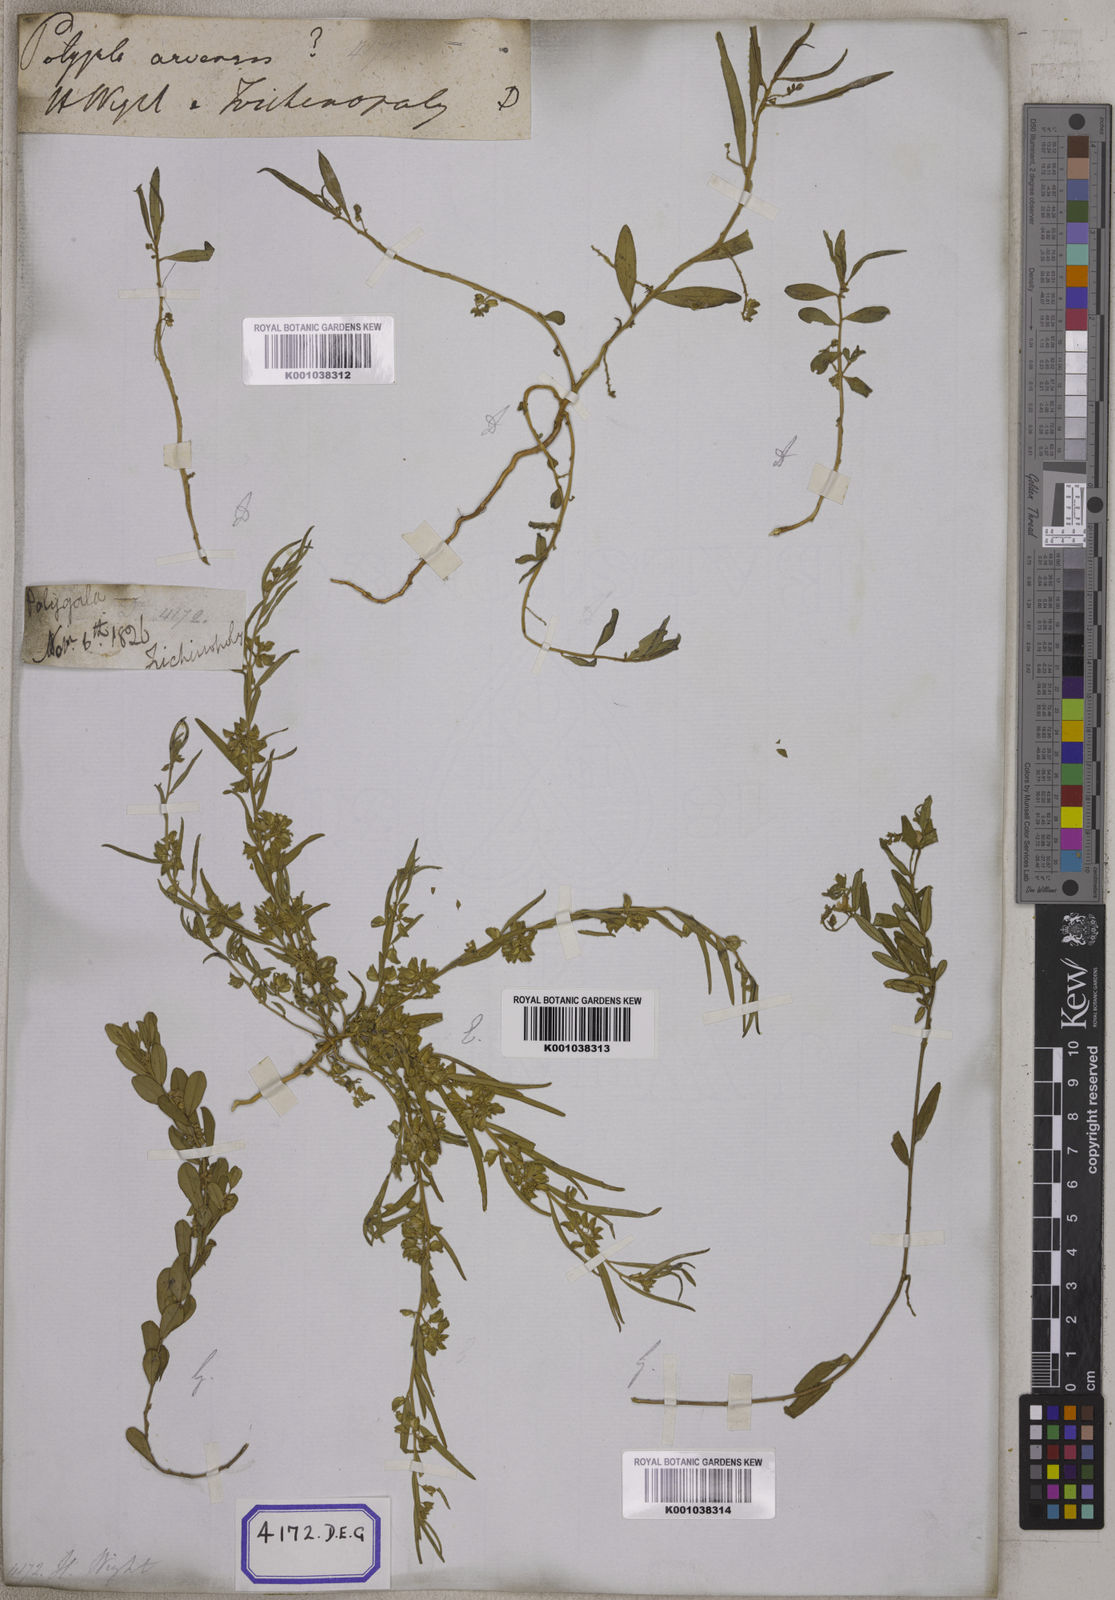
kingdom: Plantae
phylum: Tracheophyta
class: Magnoliopsida
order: Fabales
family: Polygalaceae
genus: Polygala
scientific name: Polygala
